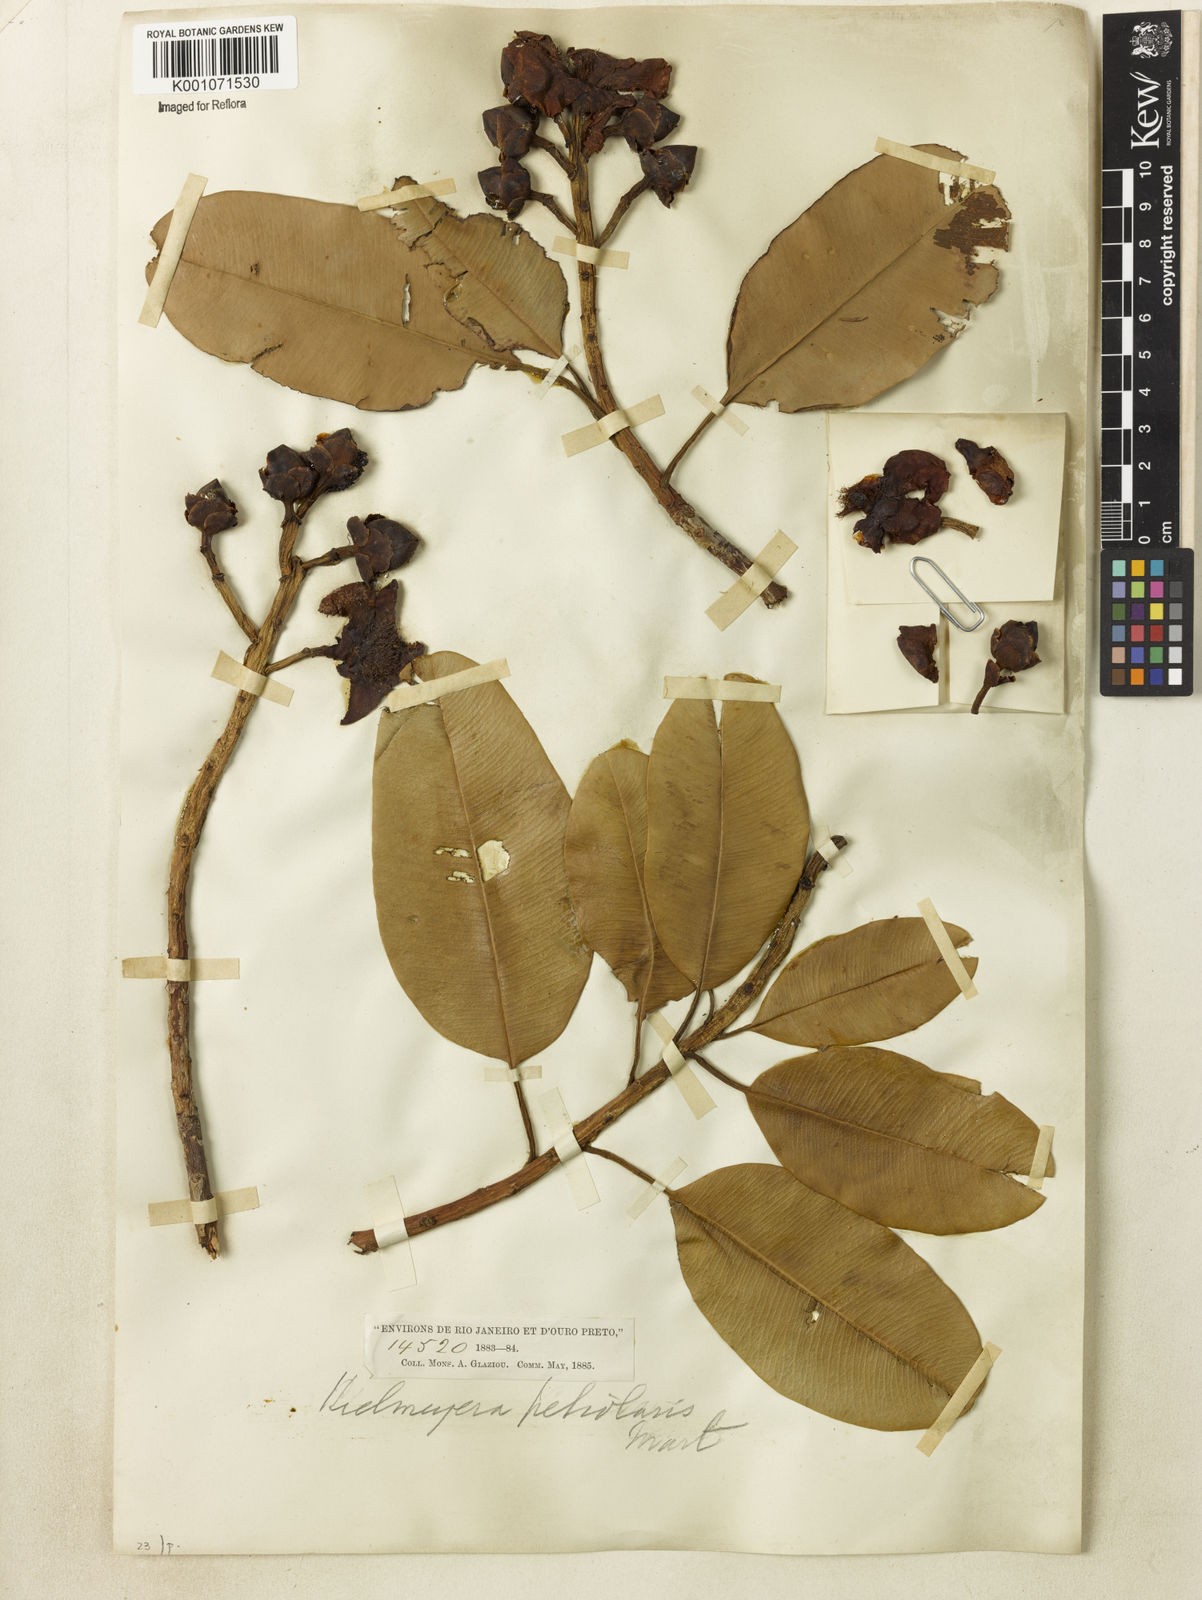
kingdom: Plantae
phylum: Tracheophyta
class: Magnoliopsida
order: Malpighiales
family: Calophyllaceae
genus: Kielmeyera
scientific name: Kielmeyera petiolaris
